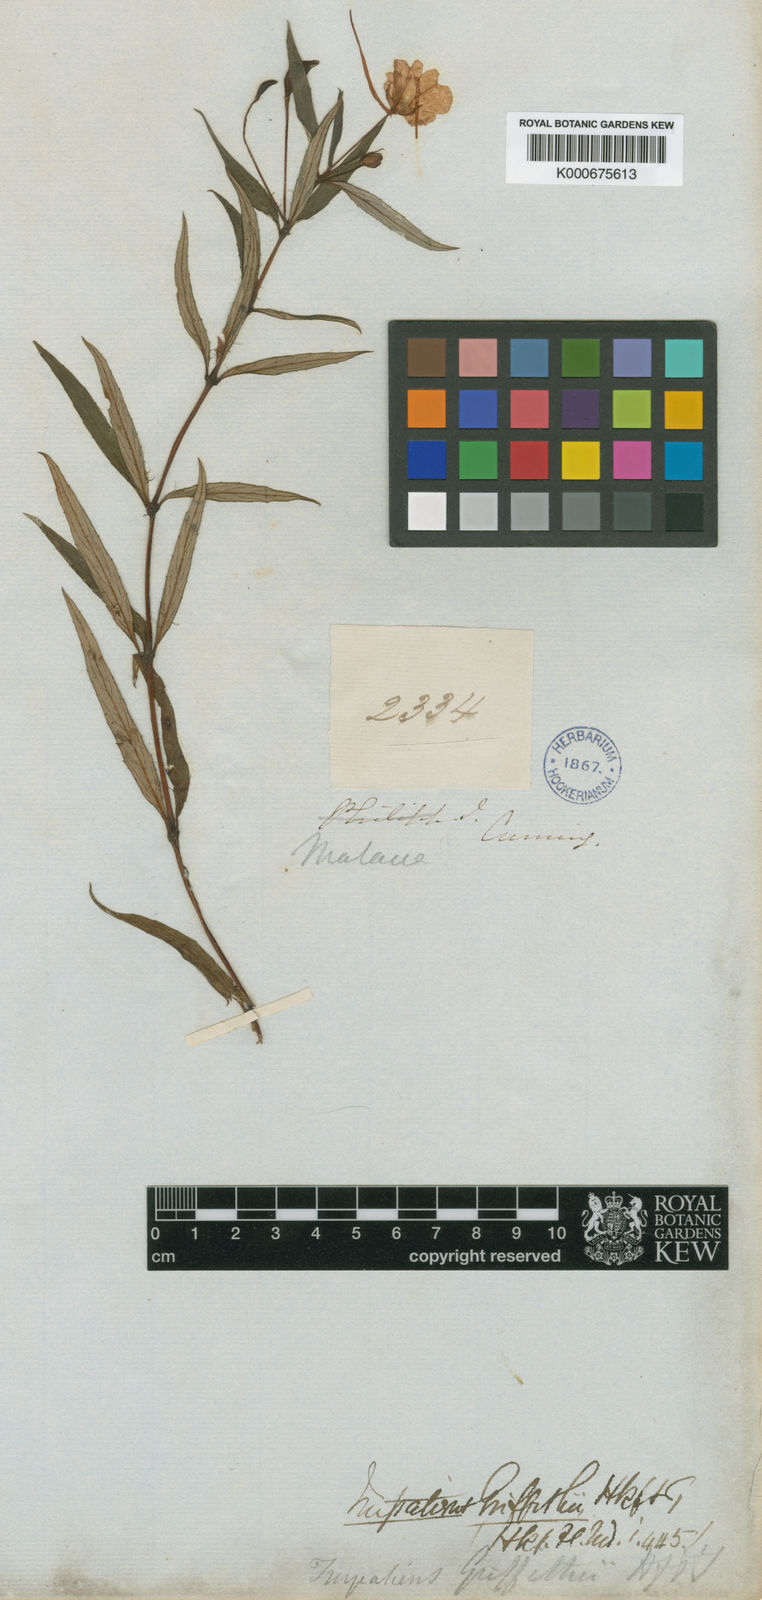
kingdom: Plantae
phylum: Tracheophyta
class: Magnoliopsida
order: Ericales
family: Balsaminaceae
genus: Impatiens
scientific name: Impatiens griffithii
